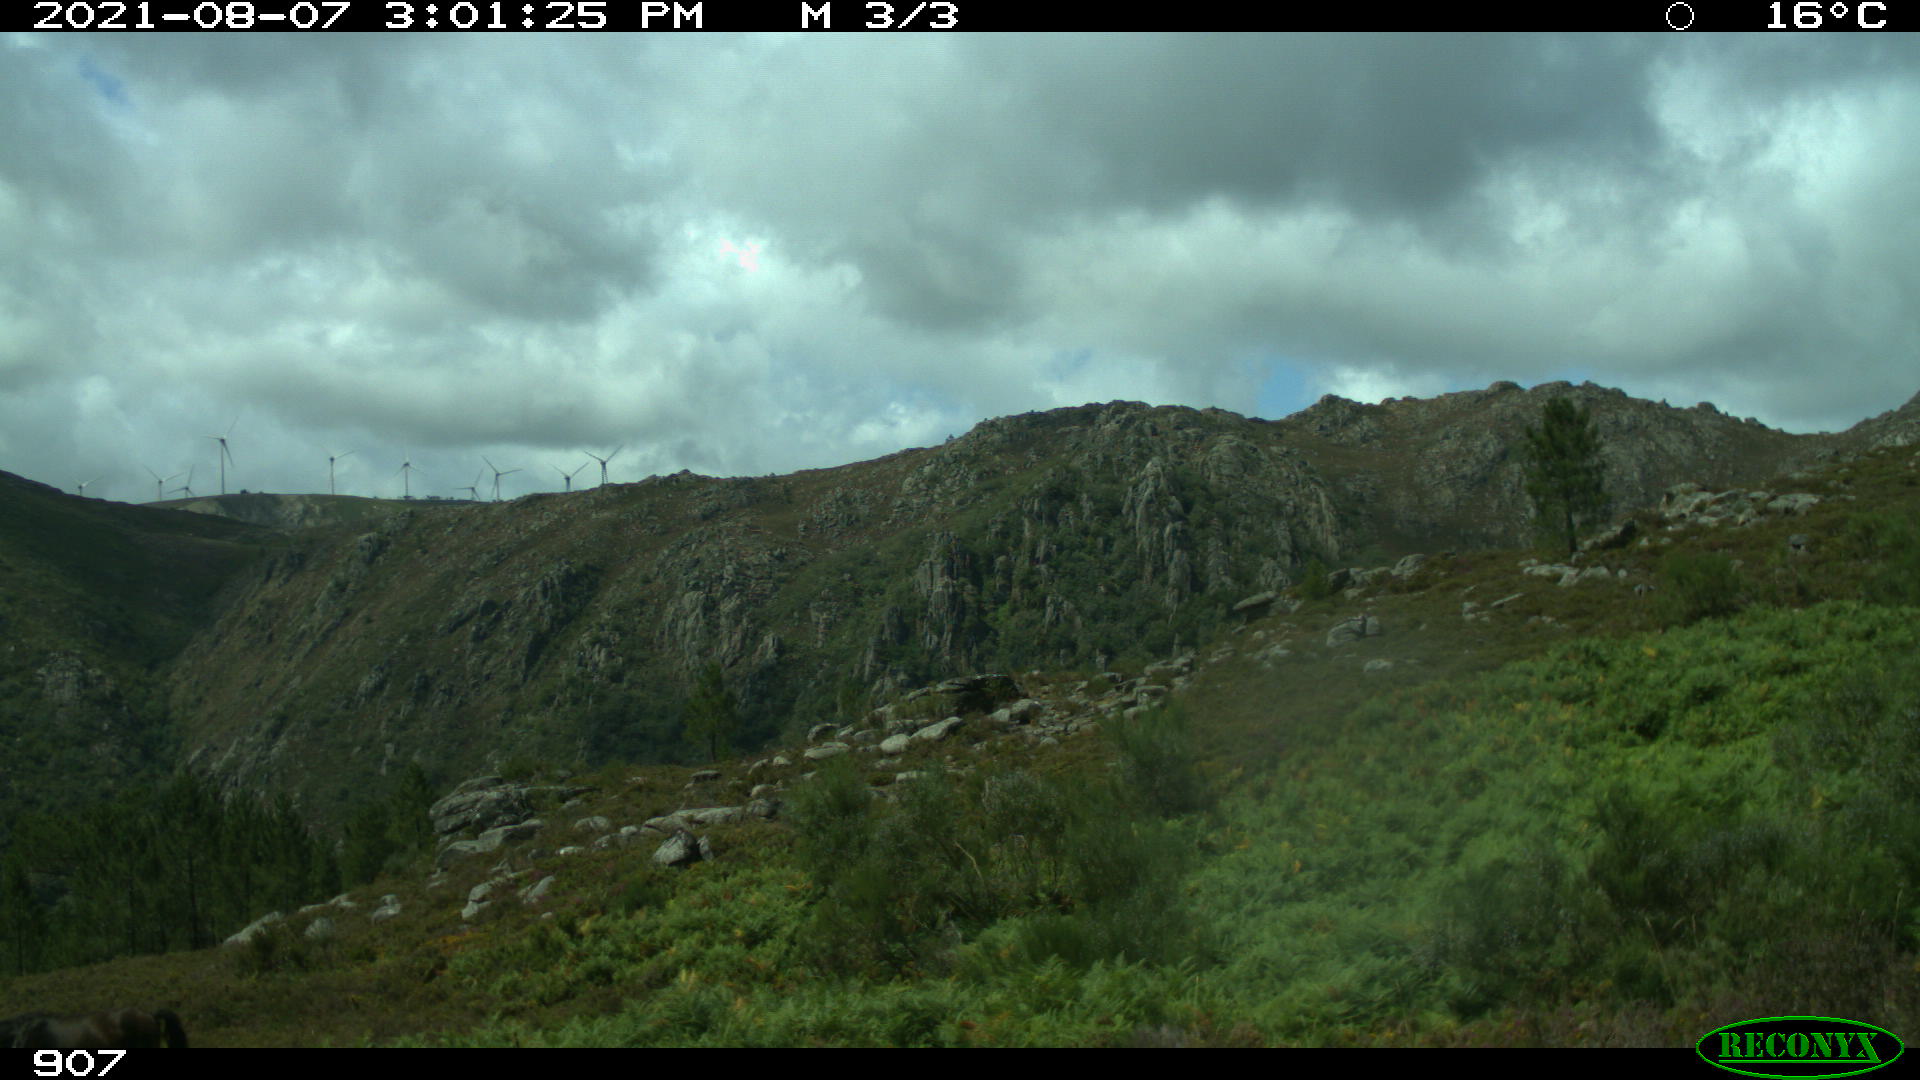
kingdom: Animalia
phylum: Chordata
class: Mammalia
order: Perissodactyla
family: Equidae
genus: Equus
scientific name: Equus caballus
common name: Horse
